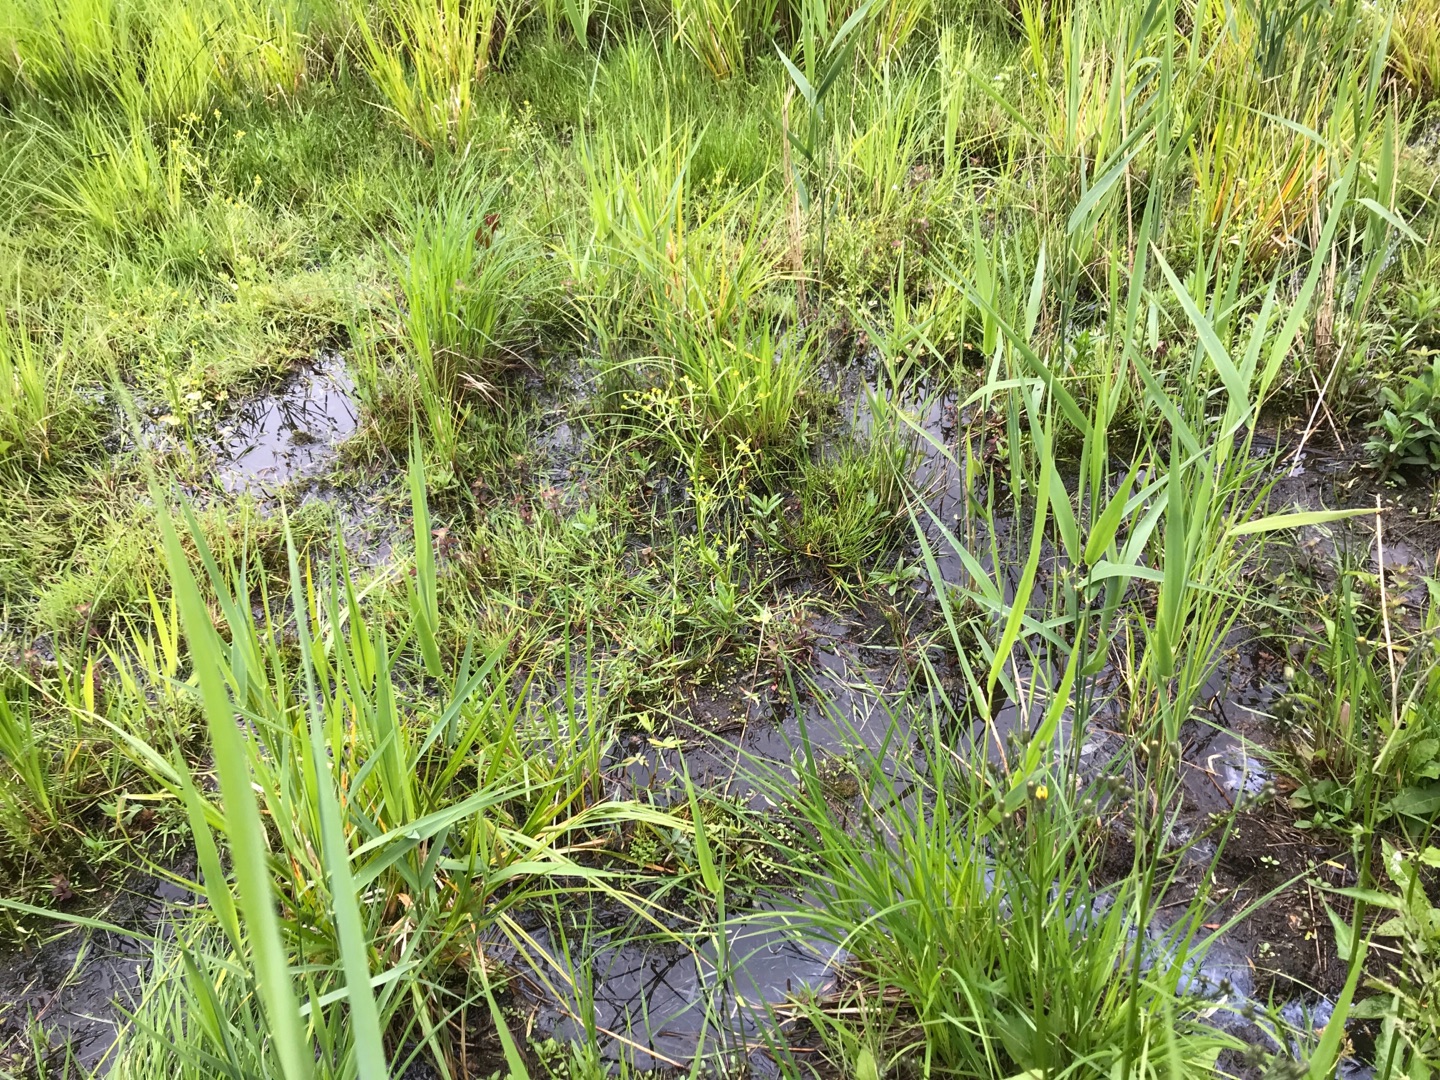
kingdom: Plantae
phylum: Tracheophyta
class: Magnoliopsida
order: Ranunculales
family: Ranunculaceae
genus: Ranunculus
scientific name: Ranunculus sceleratus
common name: Tigger-ranunkel
